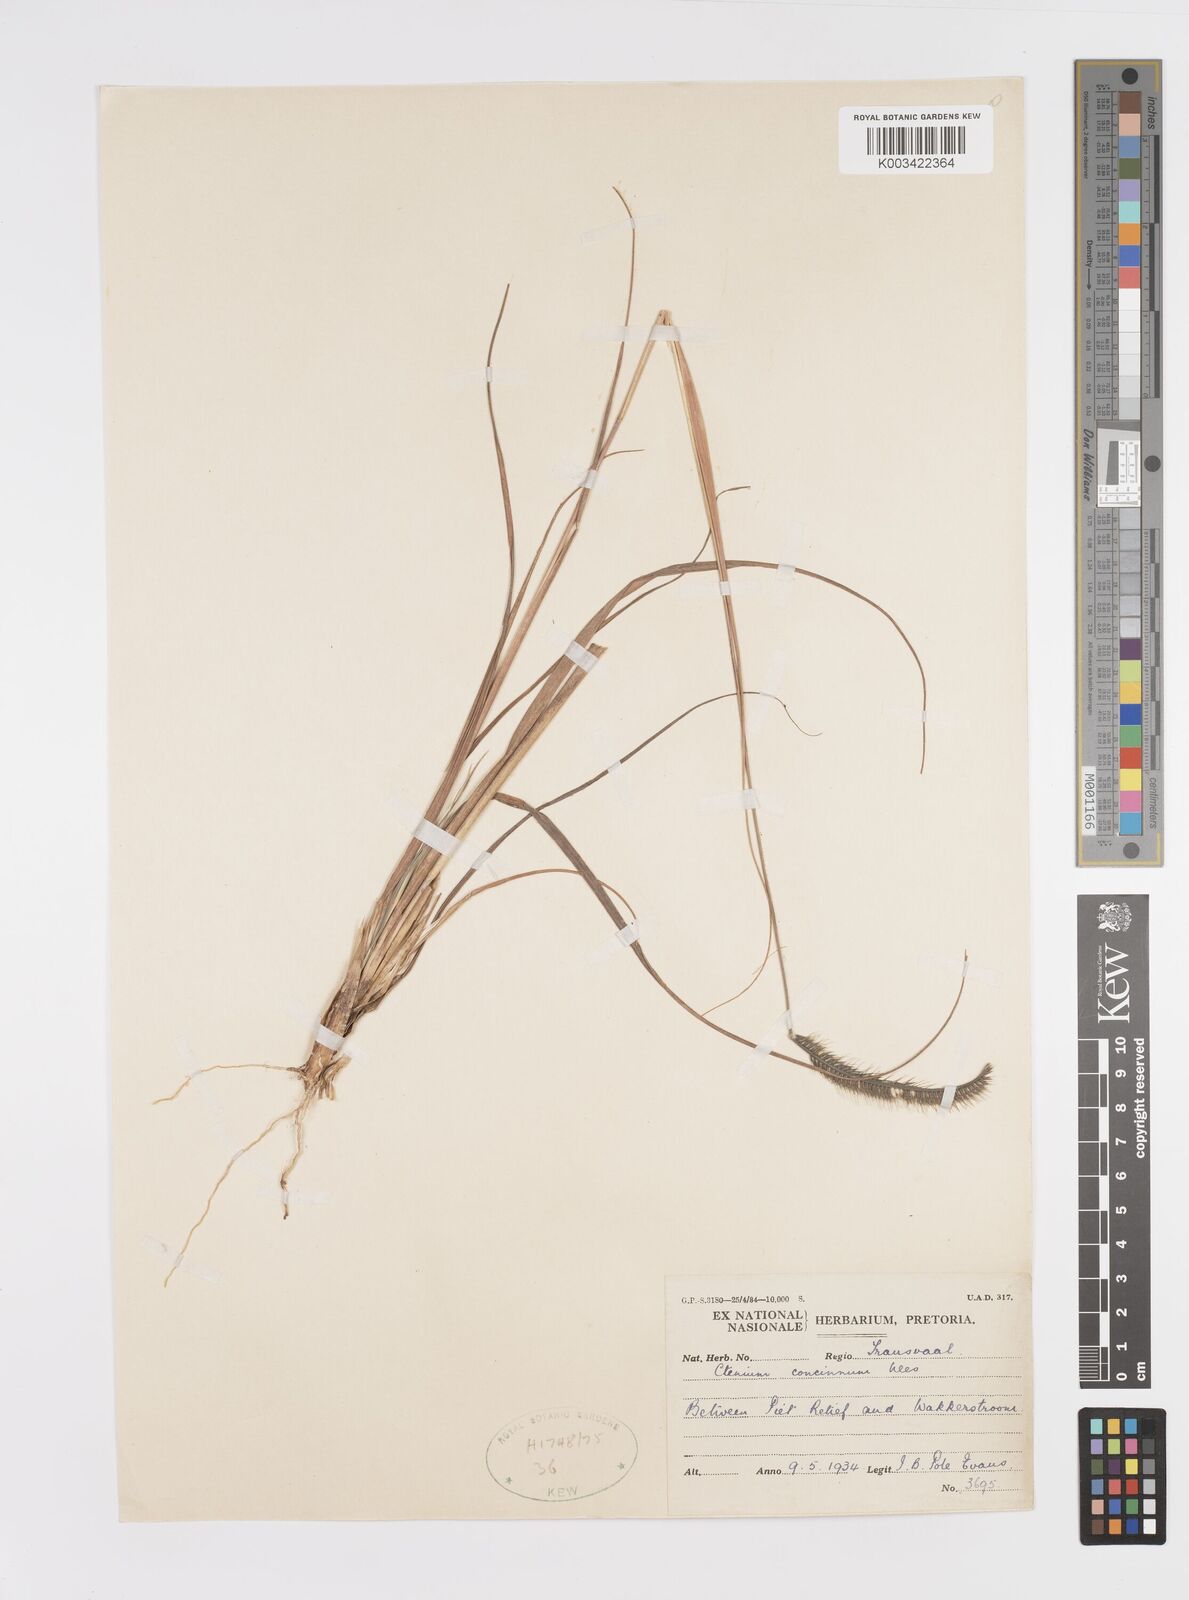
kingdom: Plantae
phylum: Tracheophyta
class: Liliopsida
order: Poales
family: Poaceae
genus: Ctenium
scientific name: Ctenium concinnum
